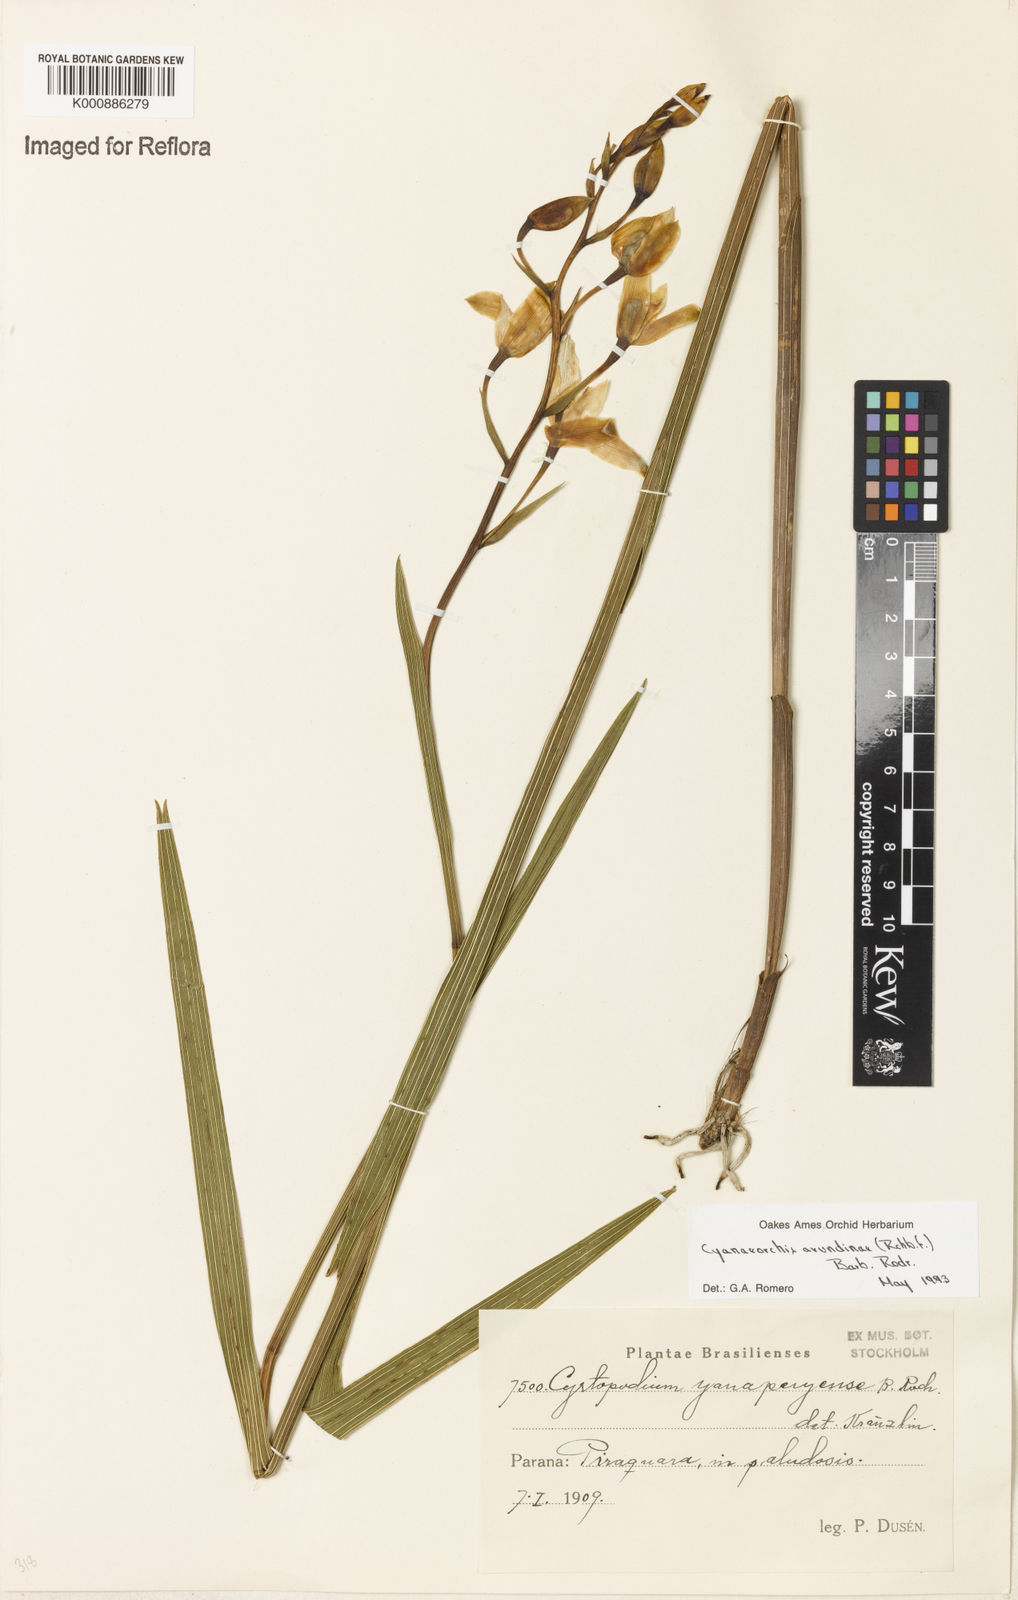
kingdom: Plantae
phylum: Tracheophyta
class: Liliopsida
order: Asparagales
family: Orchidaceae
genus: Cyanaeorchis
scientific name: Cyanaeorchis arundinae
